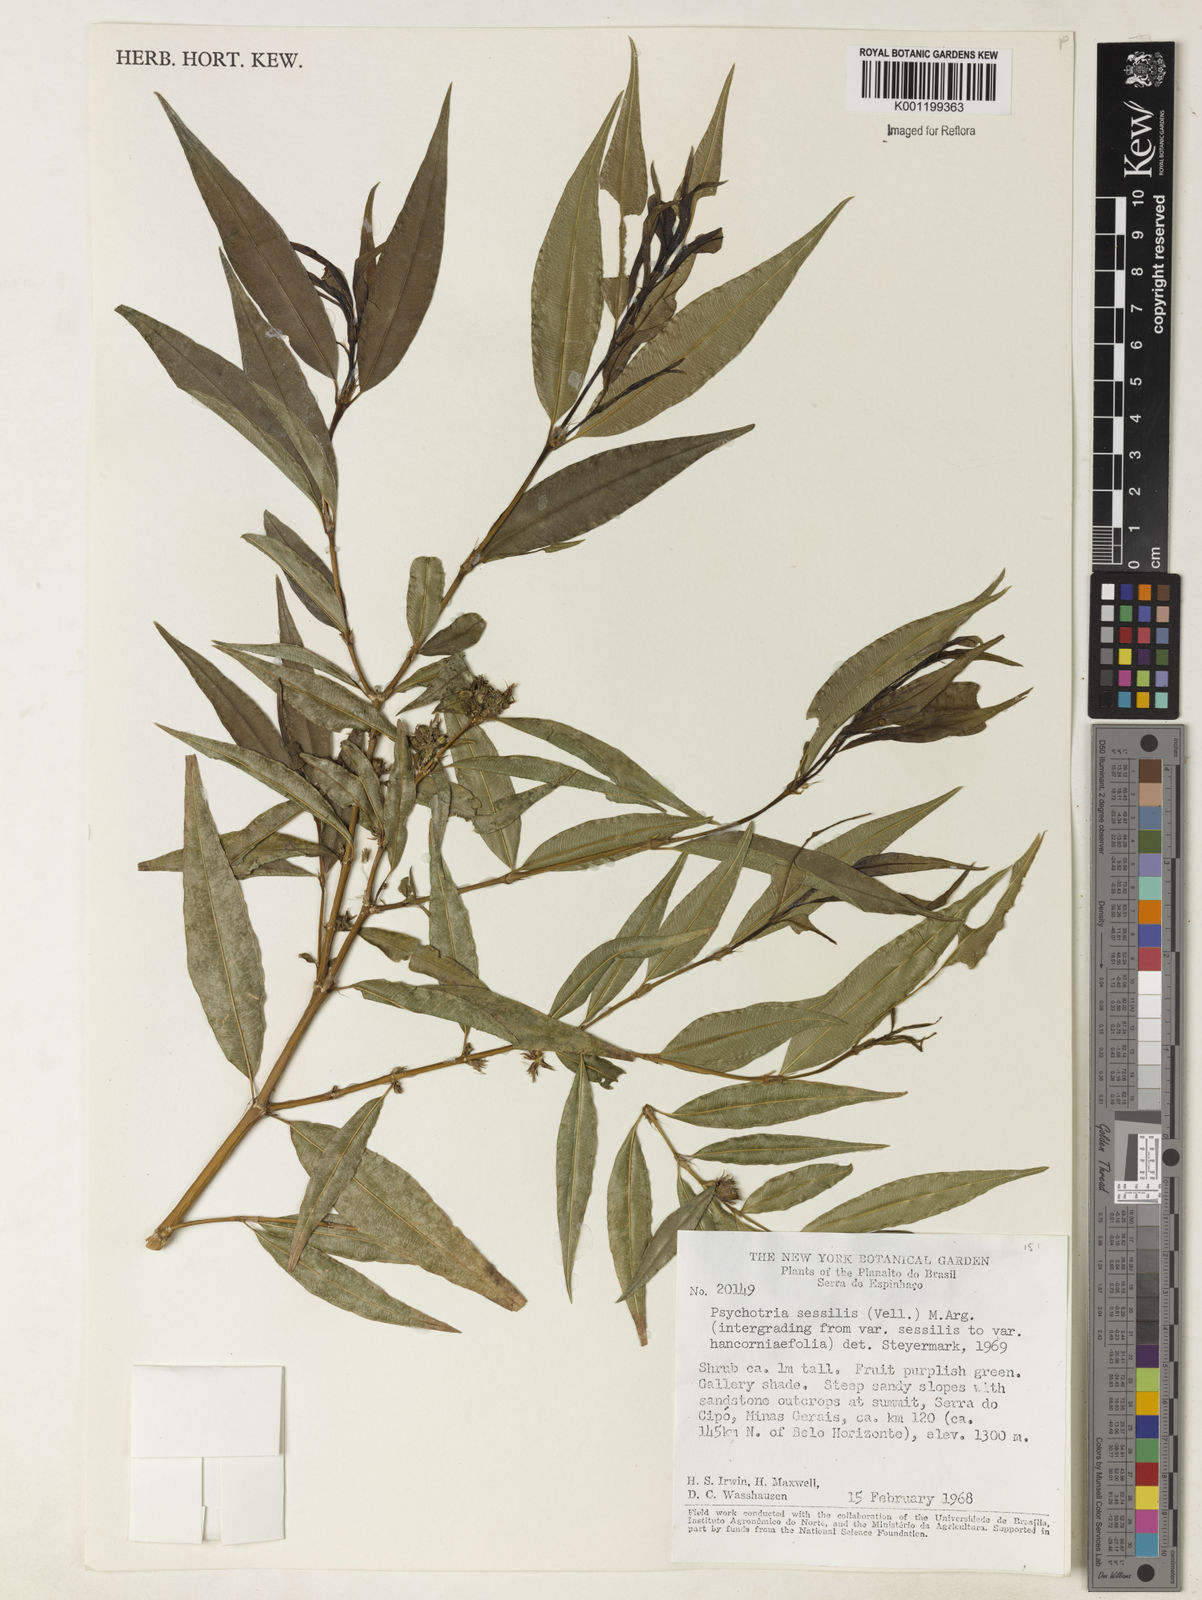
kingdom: Plantae
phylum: Tracheophyta
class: Magnoliopsida
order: Gentianales
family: Rubiaceae
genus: Palicourea
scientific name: Palicourea sessilis
